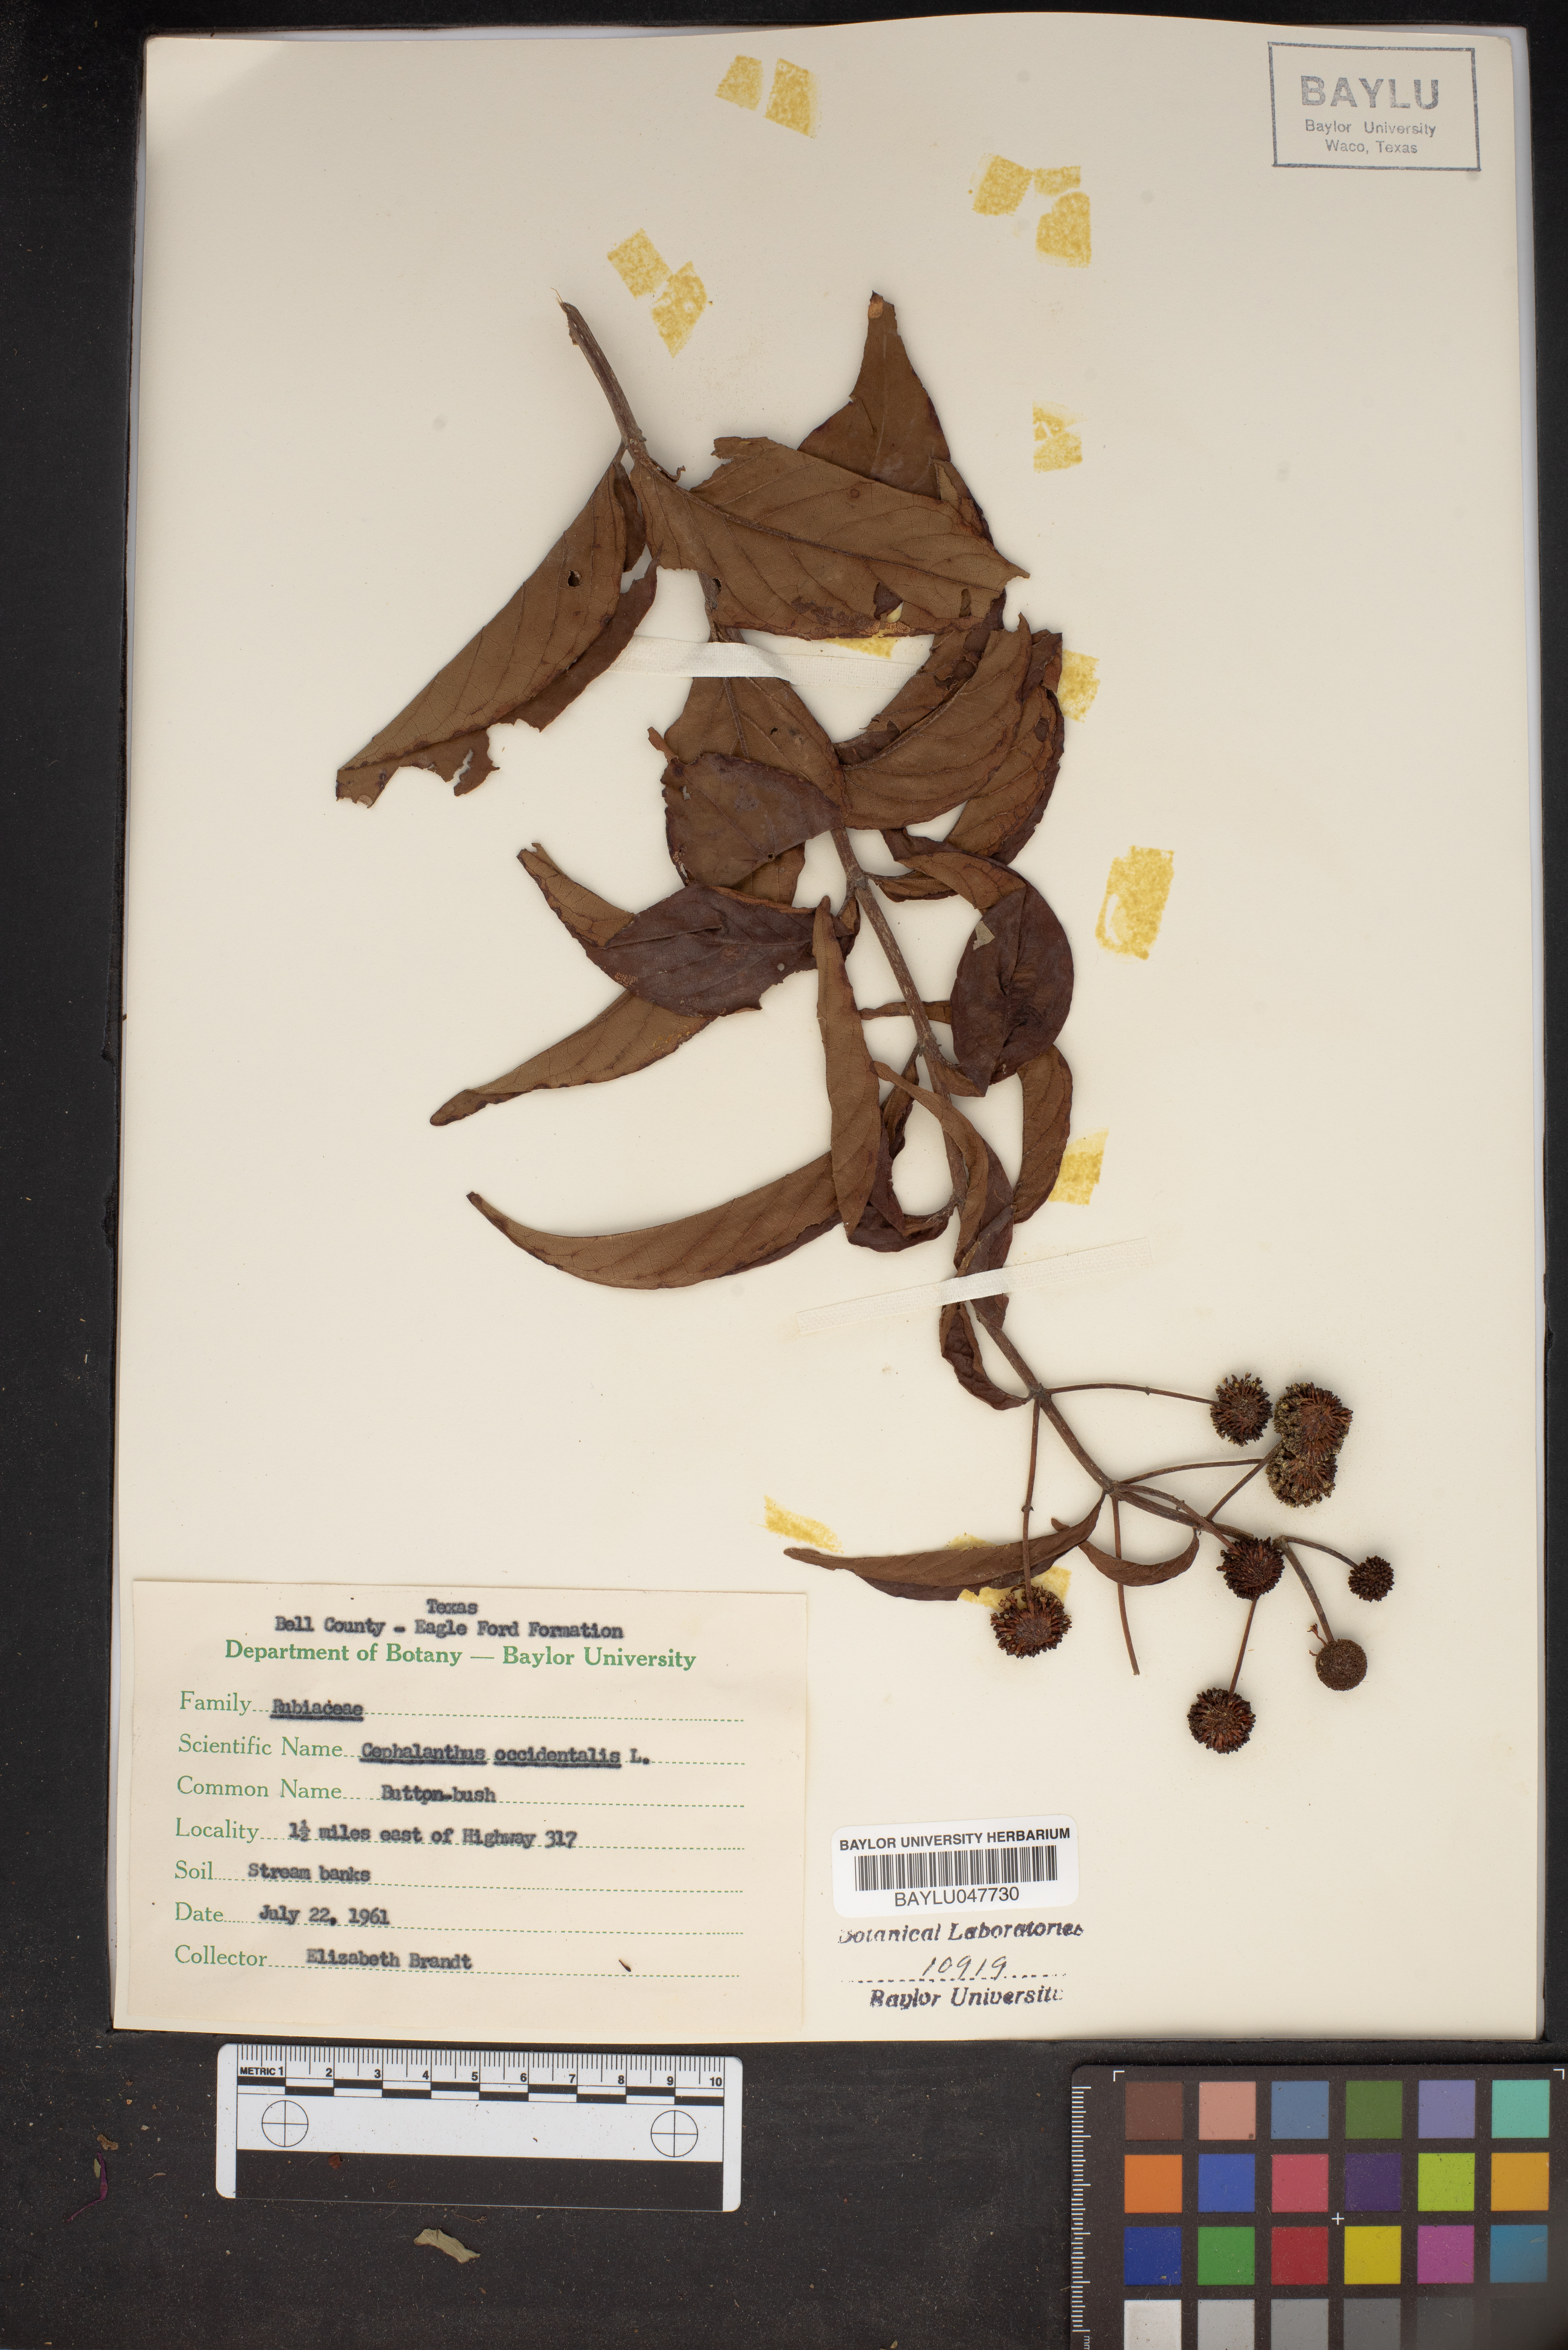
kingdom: Plantae
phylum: Tracheophyta
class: Magnoliopsida
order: Gentianales
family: Rubiaceae
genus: Cephalanthus
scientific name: Cephalanthus occidentalis
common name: Button-willow
